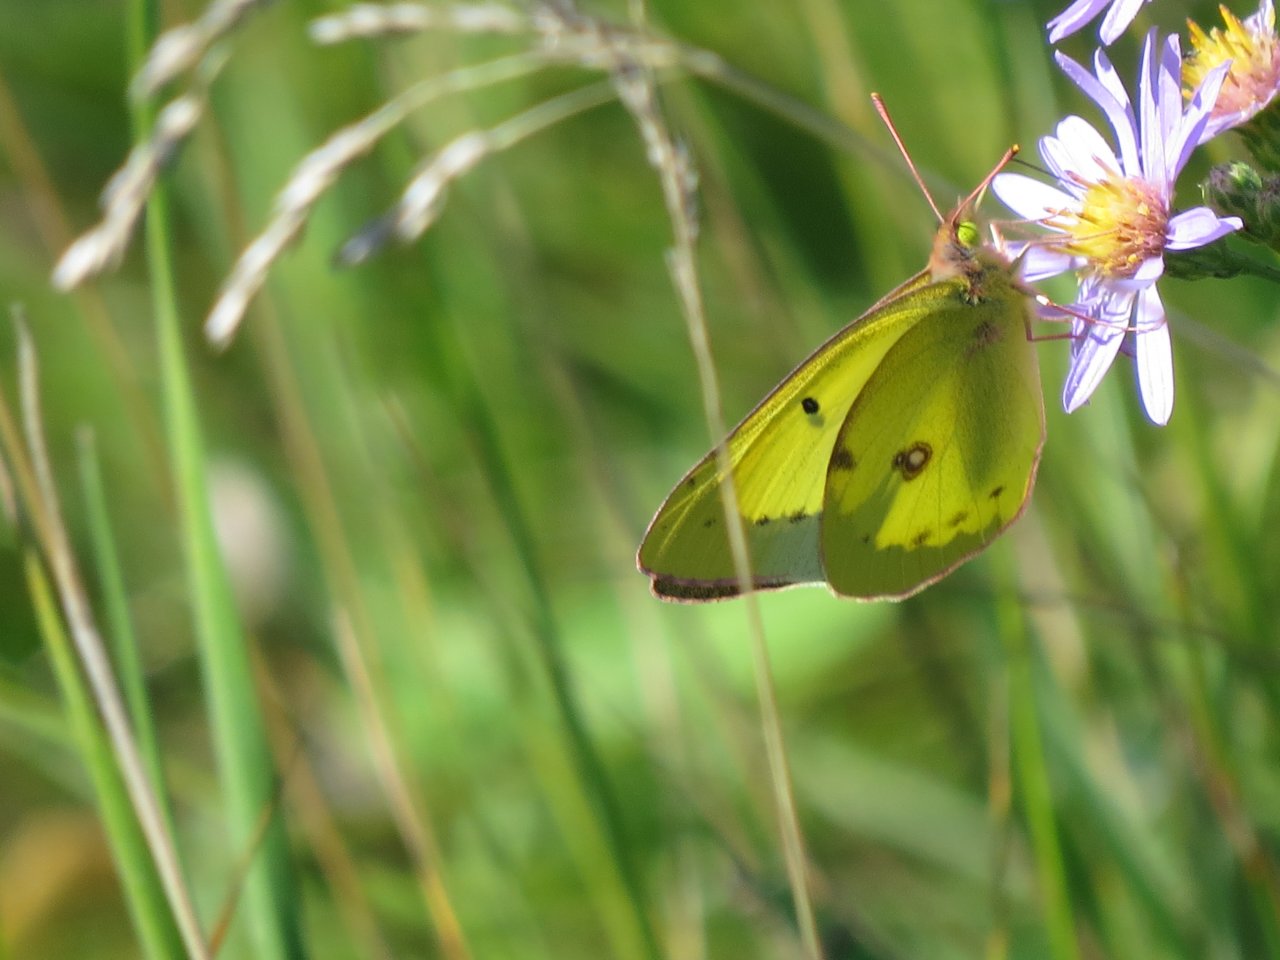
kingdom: Animalia
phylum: Arthropoda
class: Insecta
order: Lepidoptera
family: Pieridae
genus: Colias
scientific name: Colias philodice
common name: Clouded Sulphur
